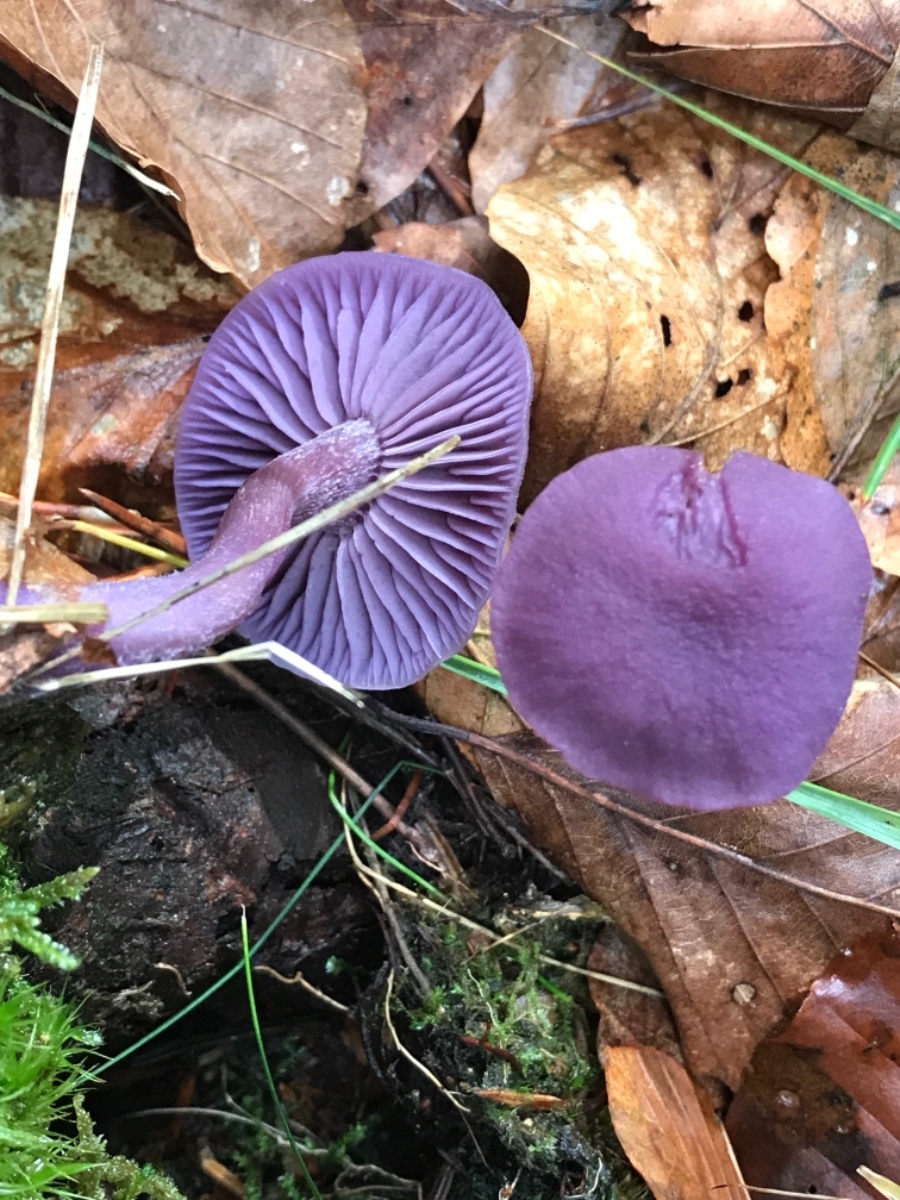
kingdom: Fungi
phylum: Basidiomycota
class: Agaricomycetes
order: Agaricales
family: Hydnangiaceae
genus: Laccaria
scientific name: Laccaria amethystina
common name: violet ametysthat
